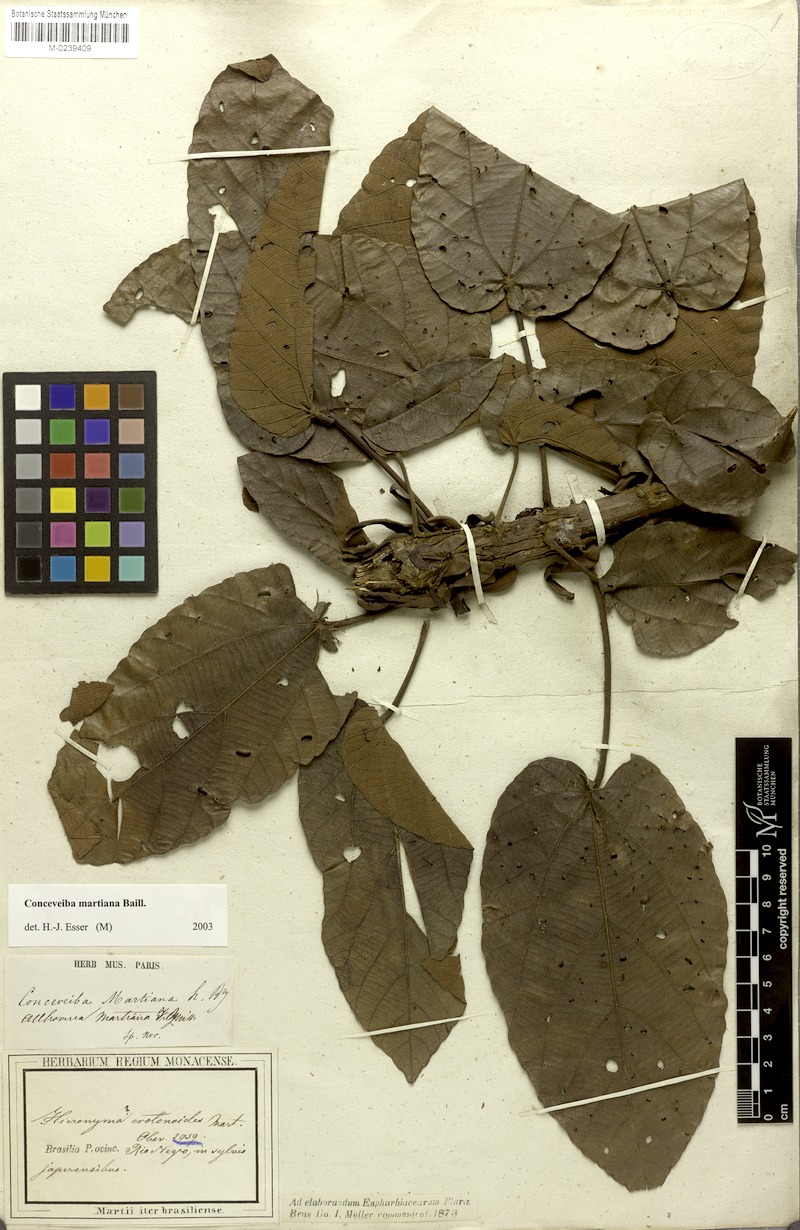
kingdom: Plantae
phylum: Tracheophyta
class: Magnoliopsida
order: Malpighiales
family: Euphorbiaceae
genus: Conceveiba
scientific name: Conceveiba martiana
